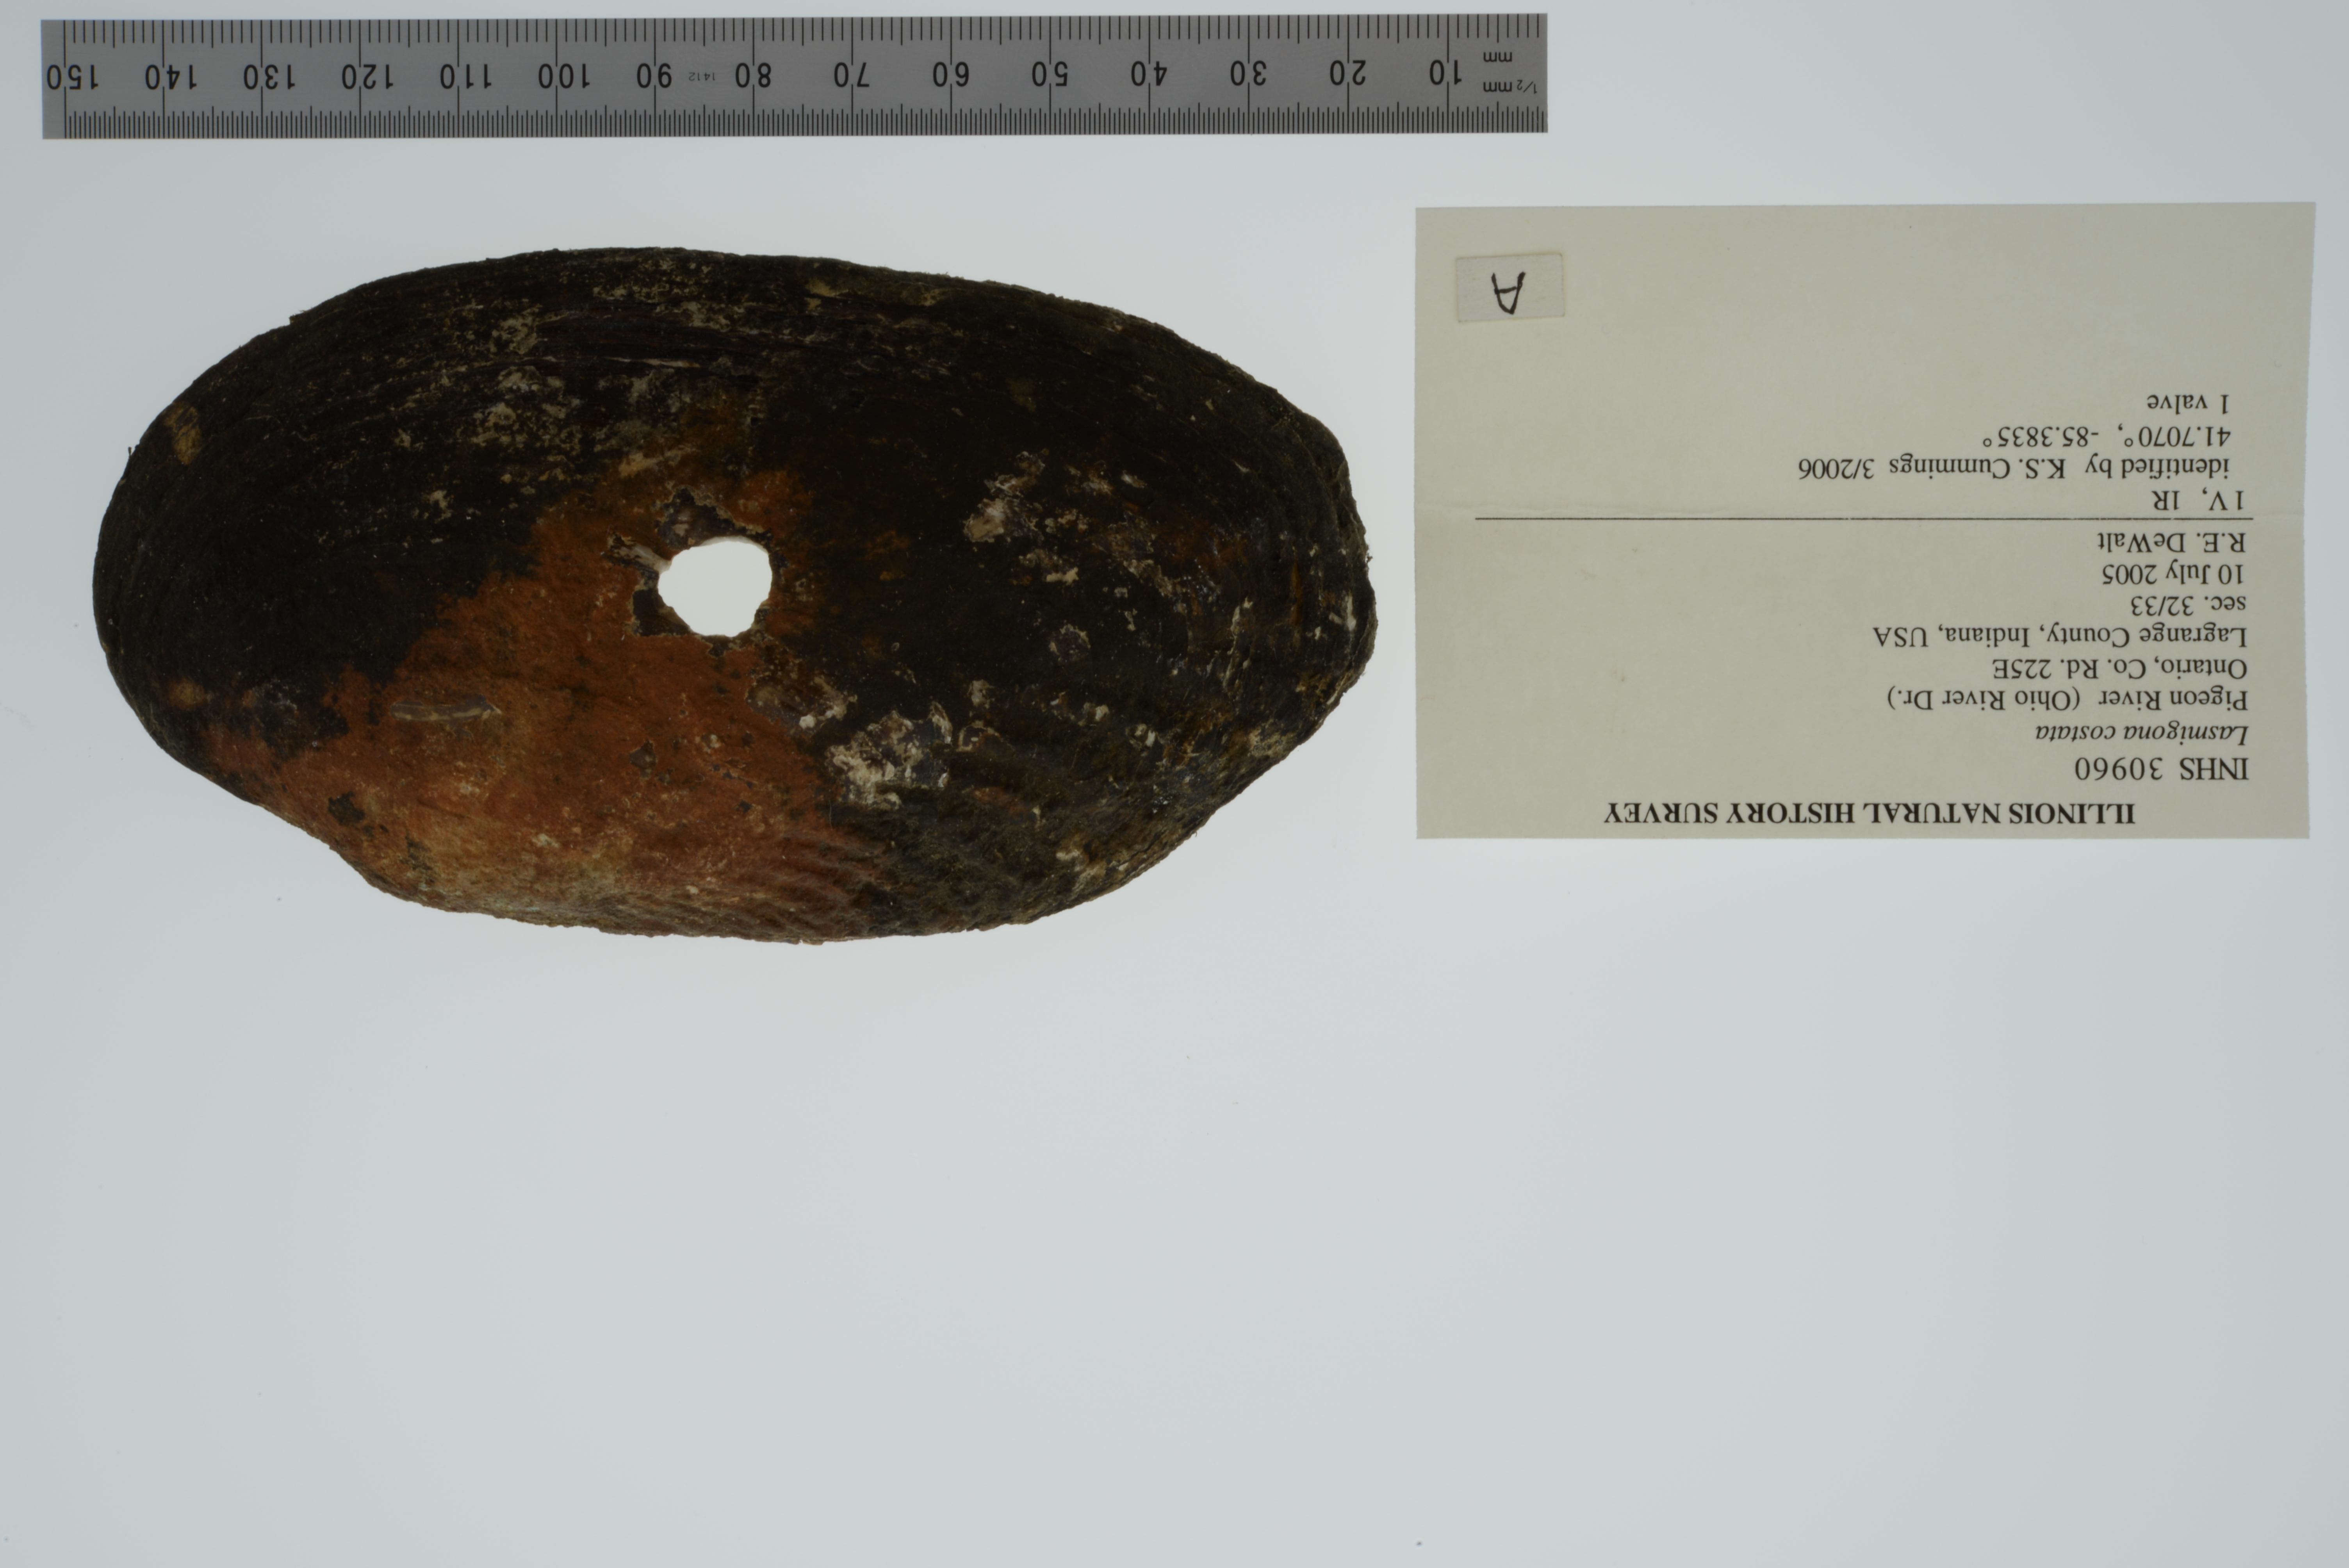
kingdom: Animalia
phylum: Mollusca
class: Bivalvia
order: Unionida
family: Unionidae
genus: Lasmigona
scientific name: Lasmigona costata
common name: Flutedshell
